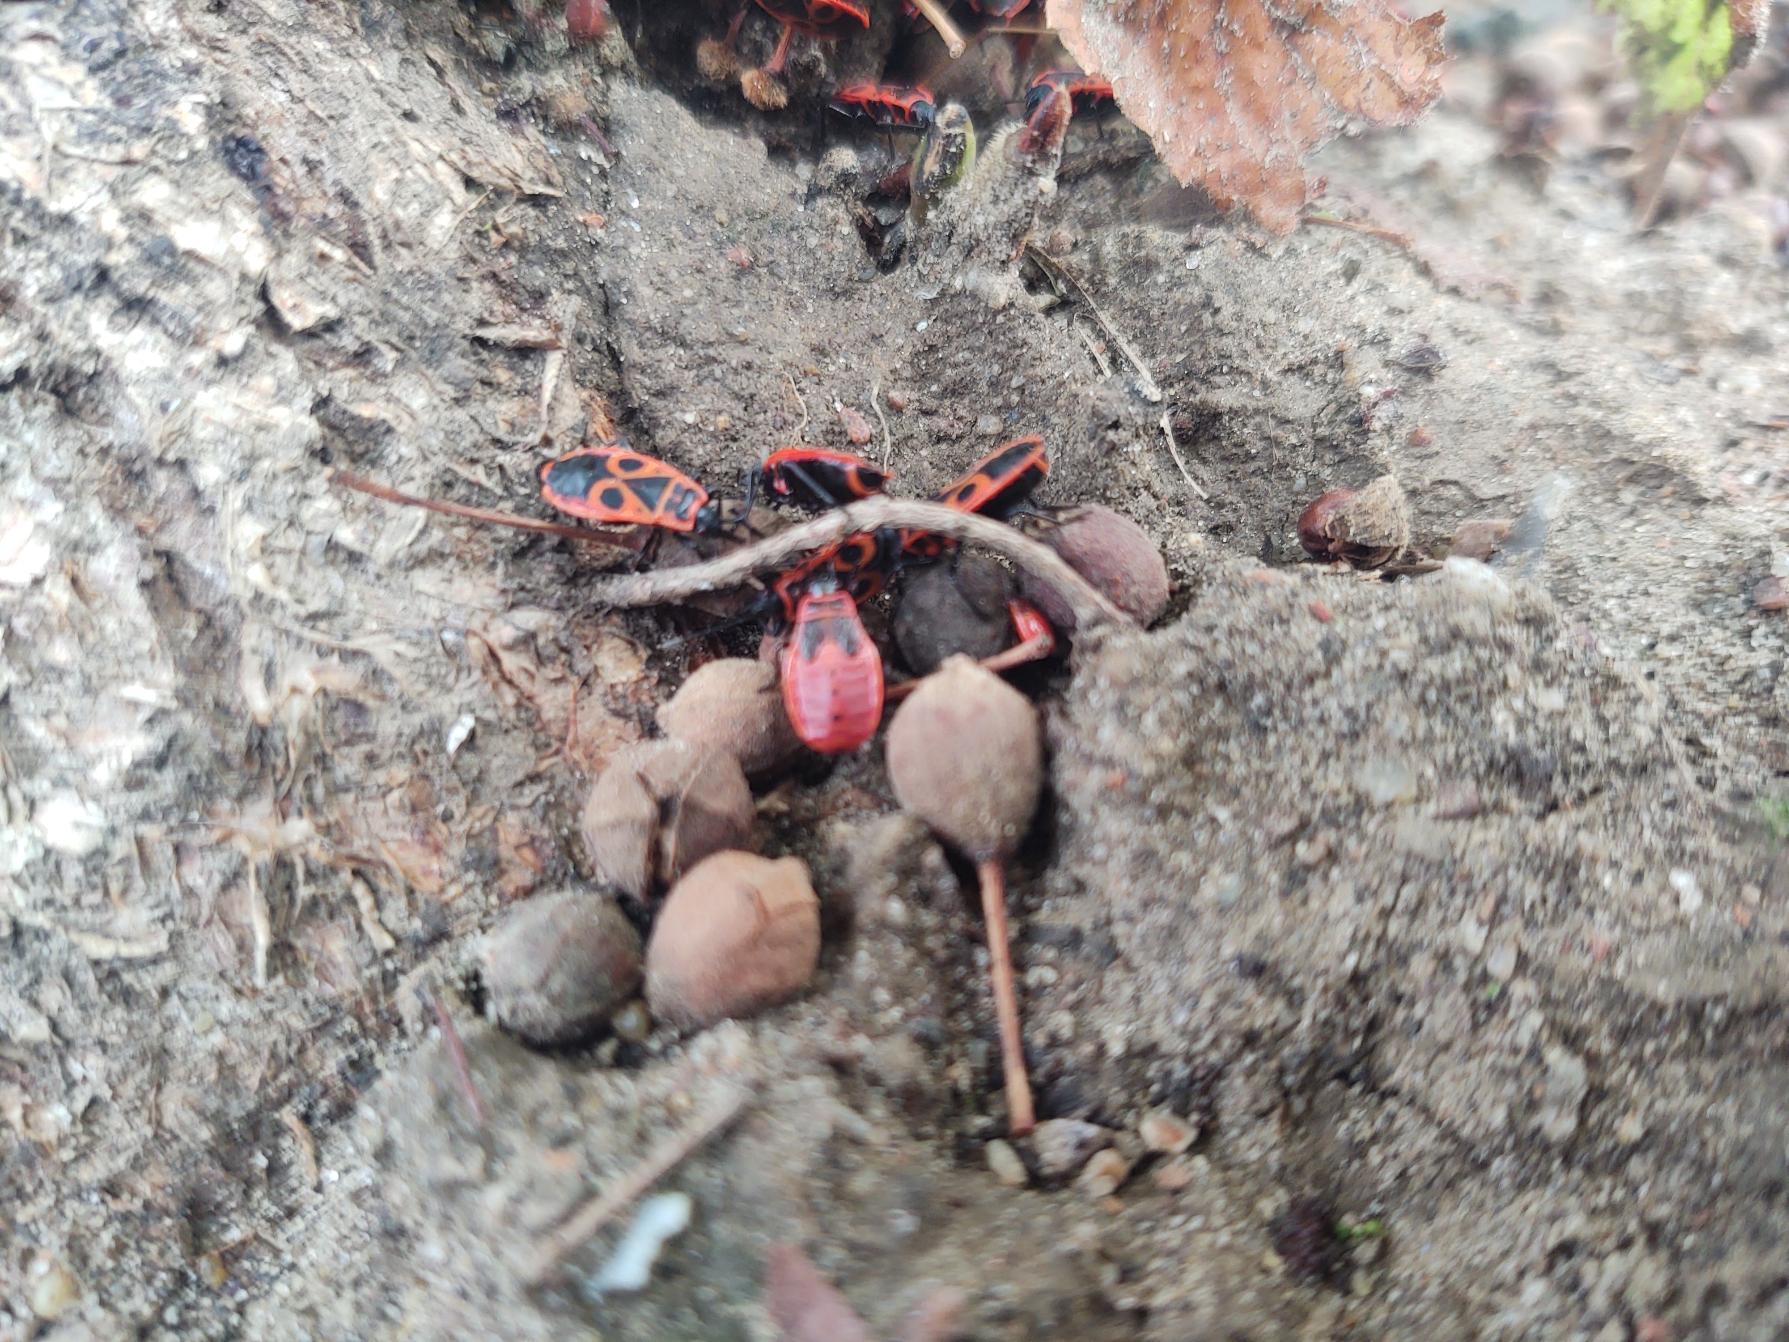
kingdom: Animalia
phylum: Arthropoda
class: Insecta
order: Hemiptera
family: Pyrrhocoridae
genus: Pyrrhocoris
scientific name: Pyrrhocoris apterus
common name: Ildtæge
